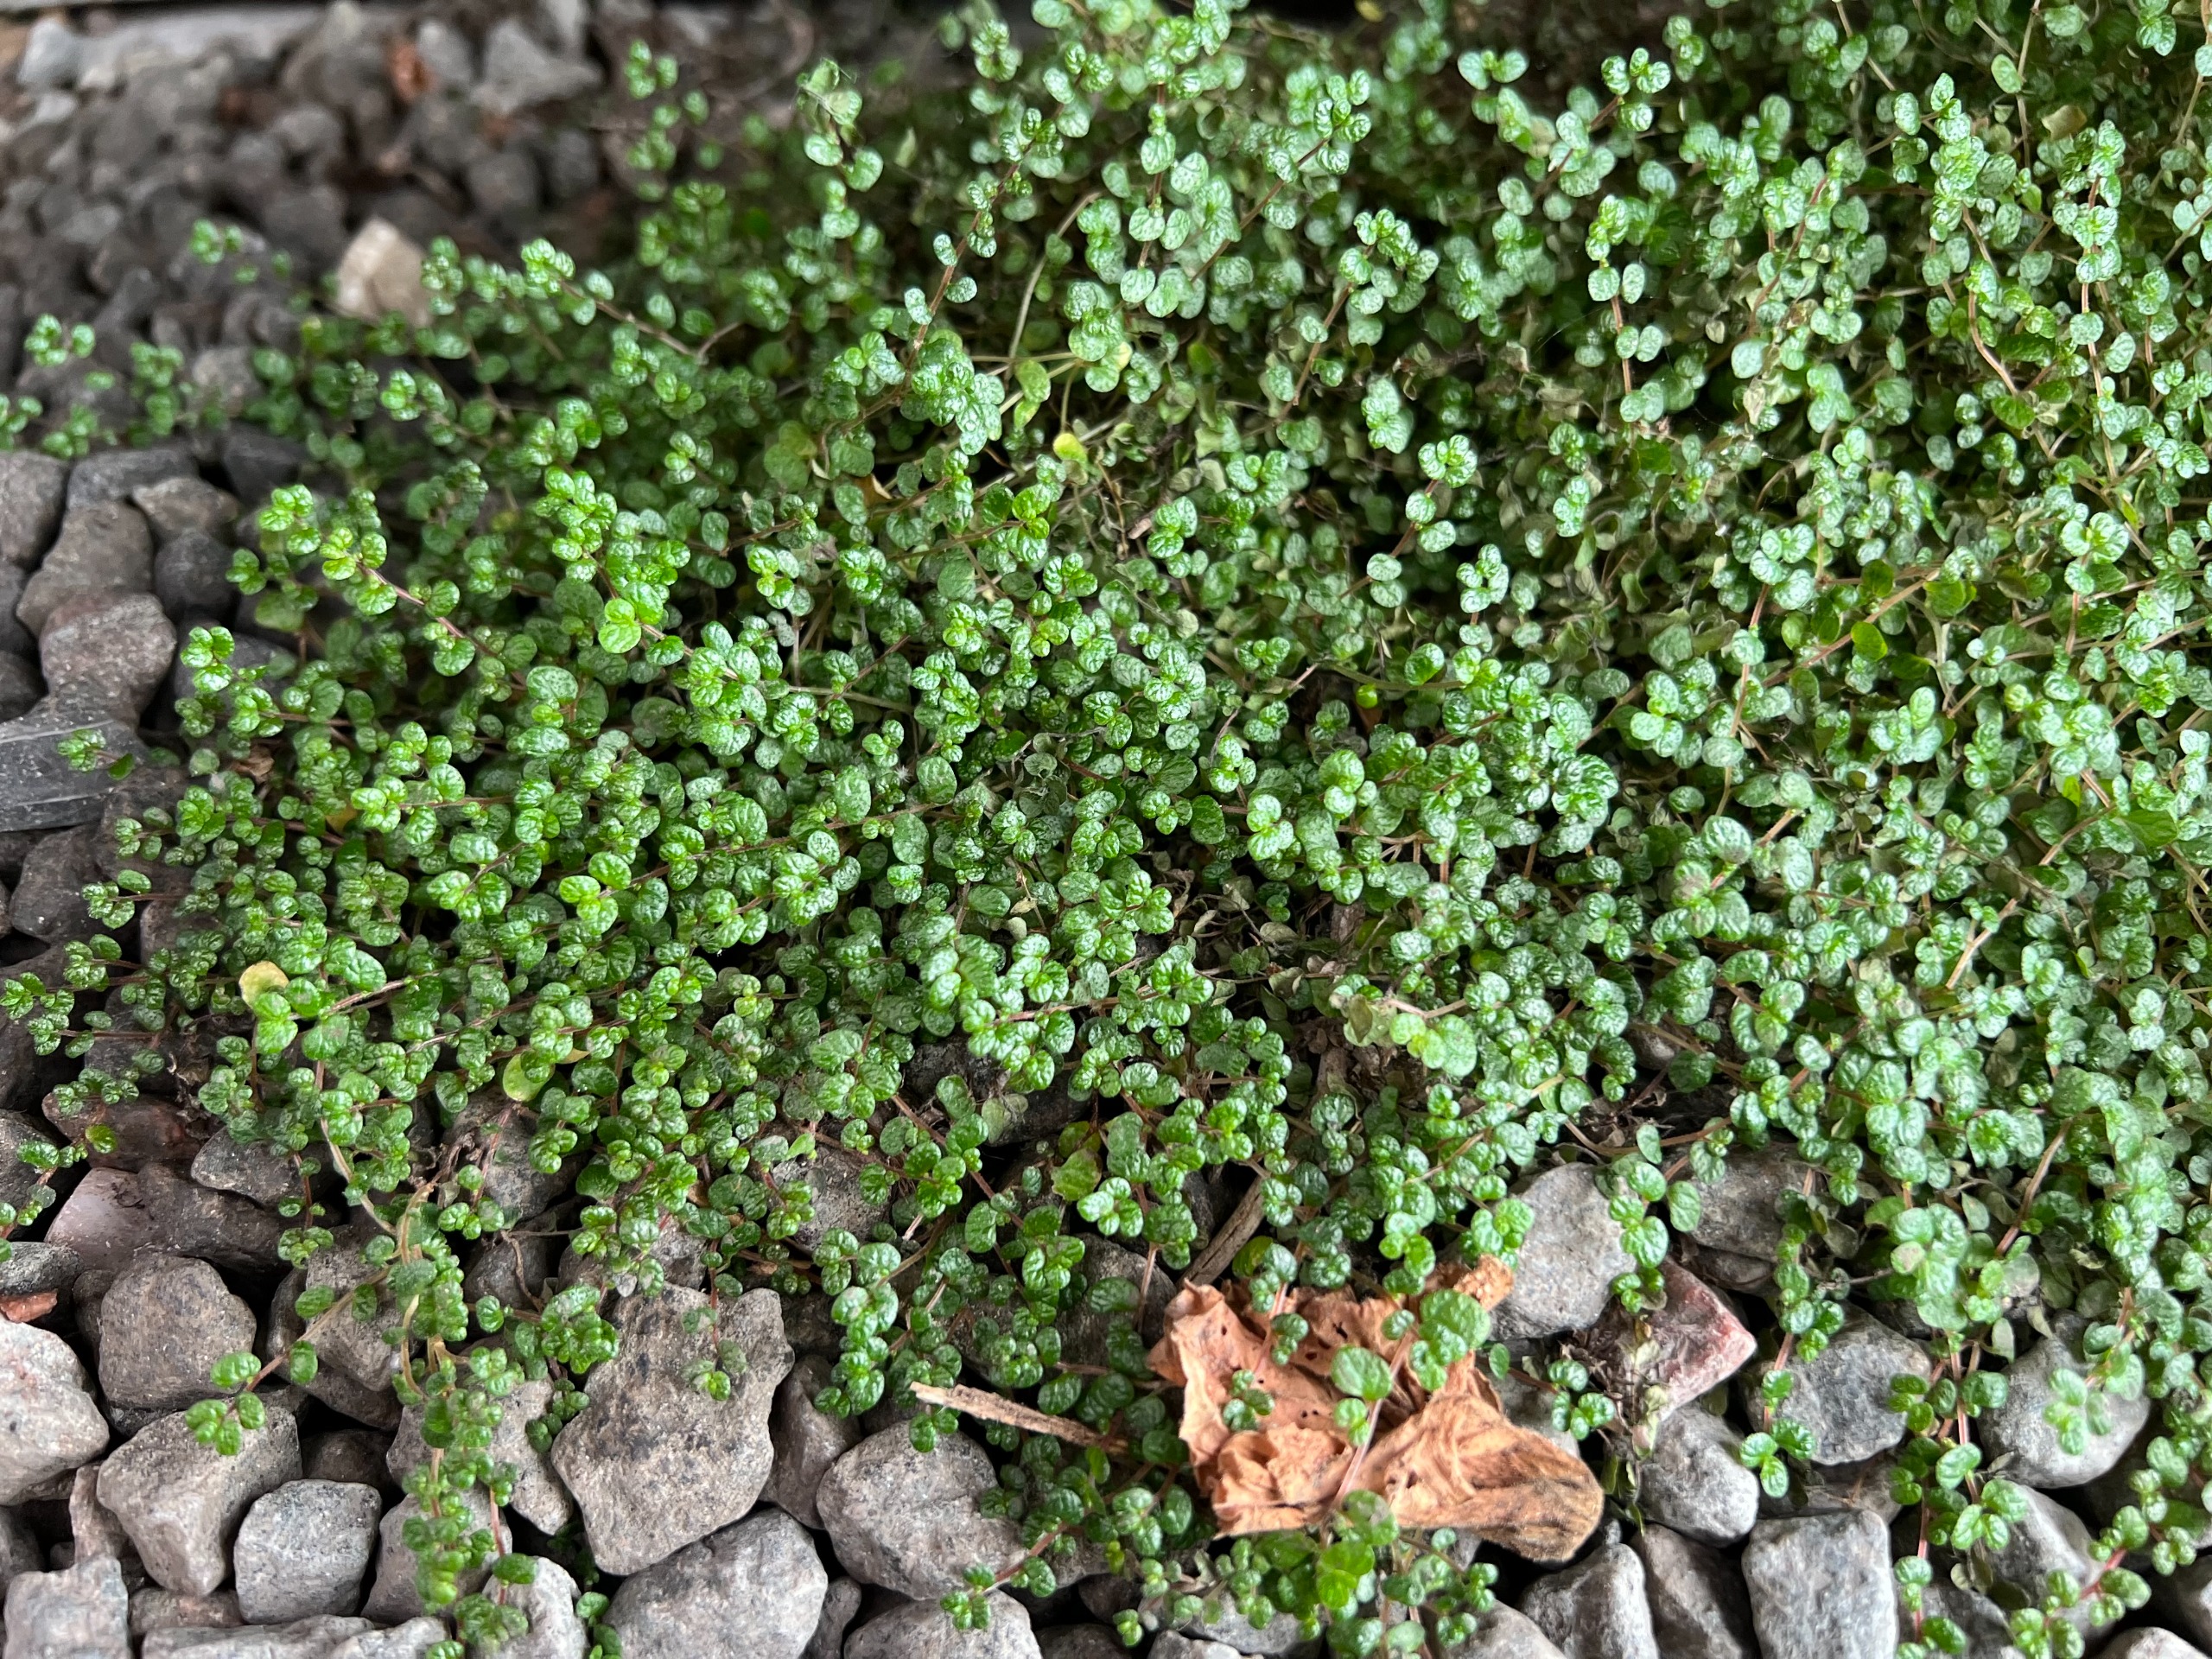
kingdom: Plantae
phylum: Tracheophyta
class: Magnoliopsida
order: Rosales
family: Urticaceae
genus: Soleirolia
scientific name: Soleirolia soleirolii
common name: Husfred
